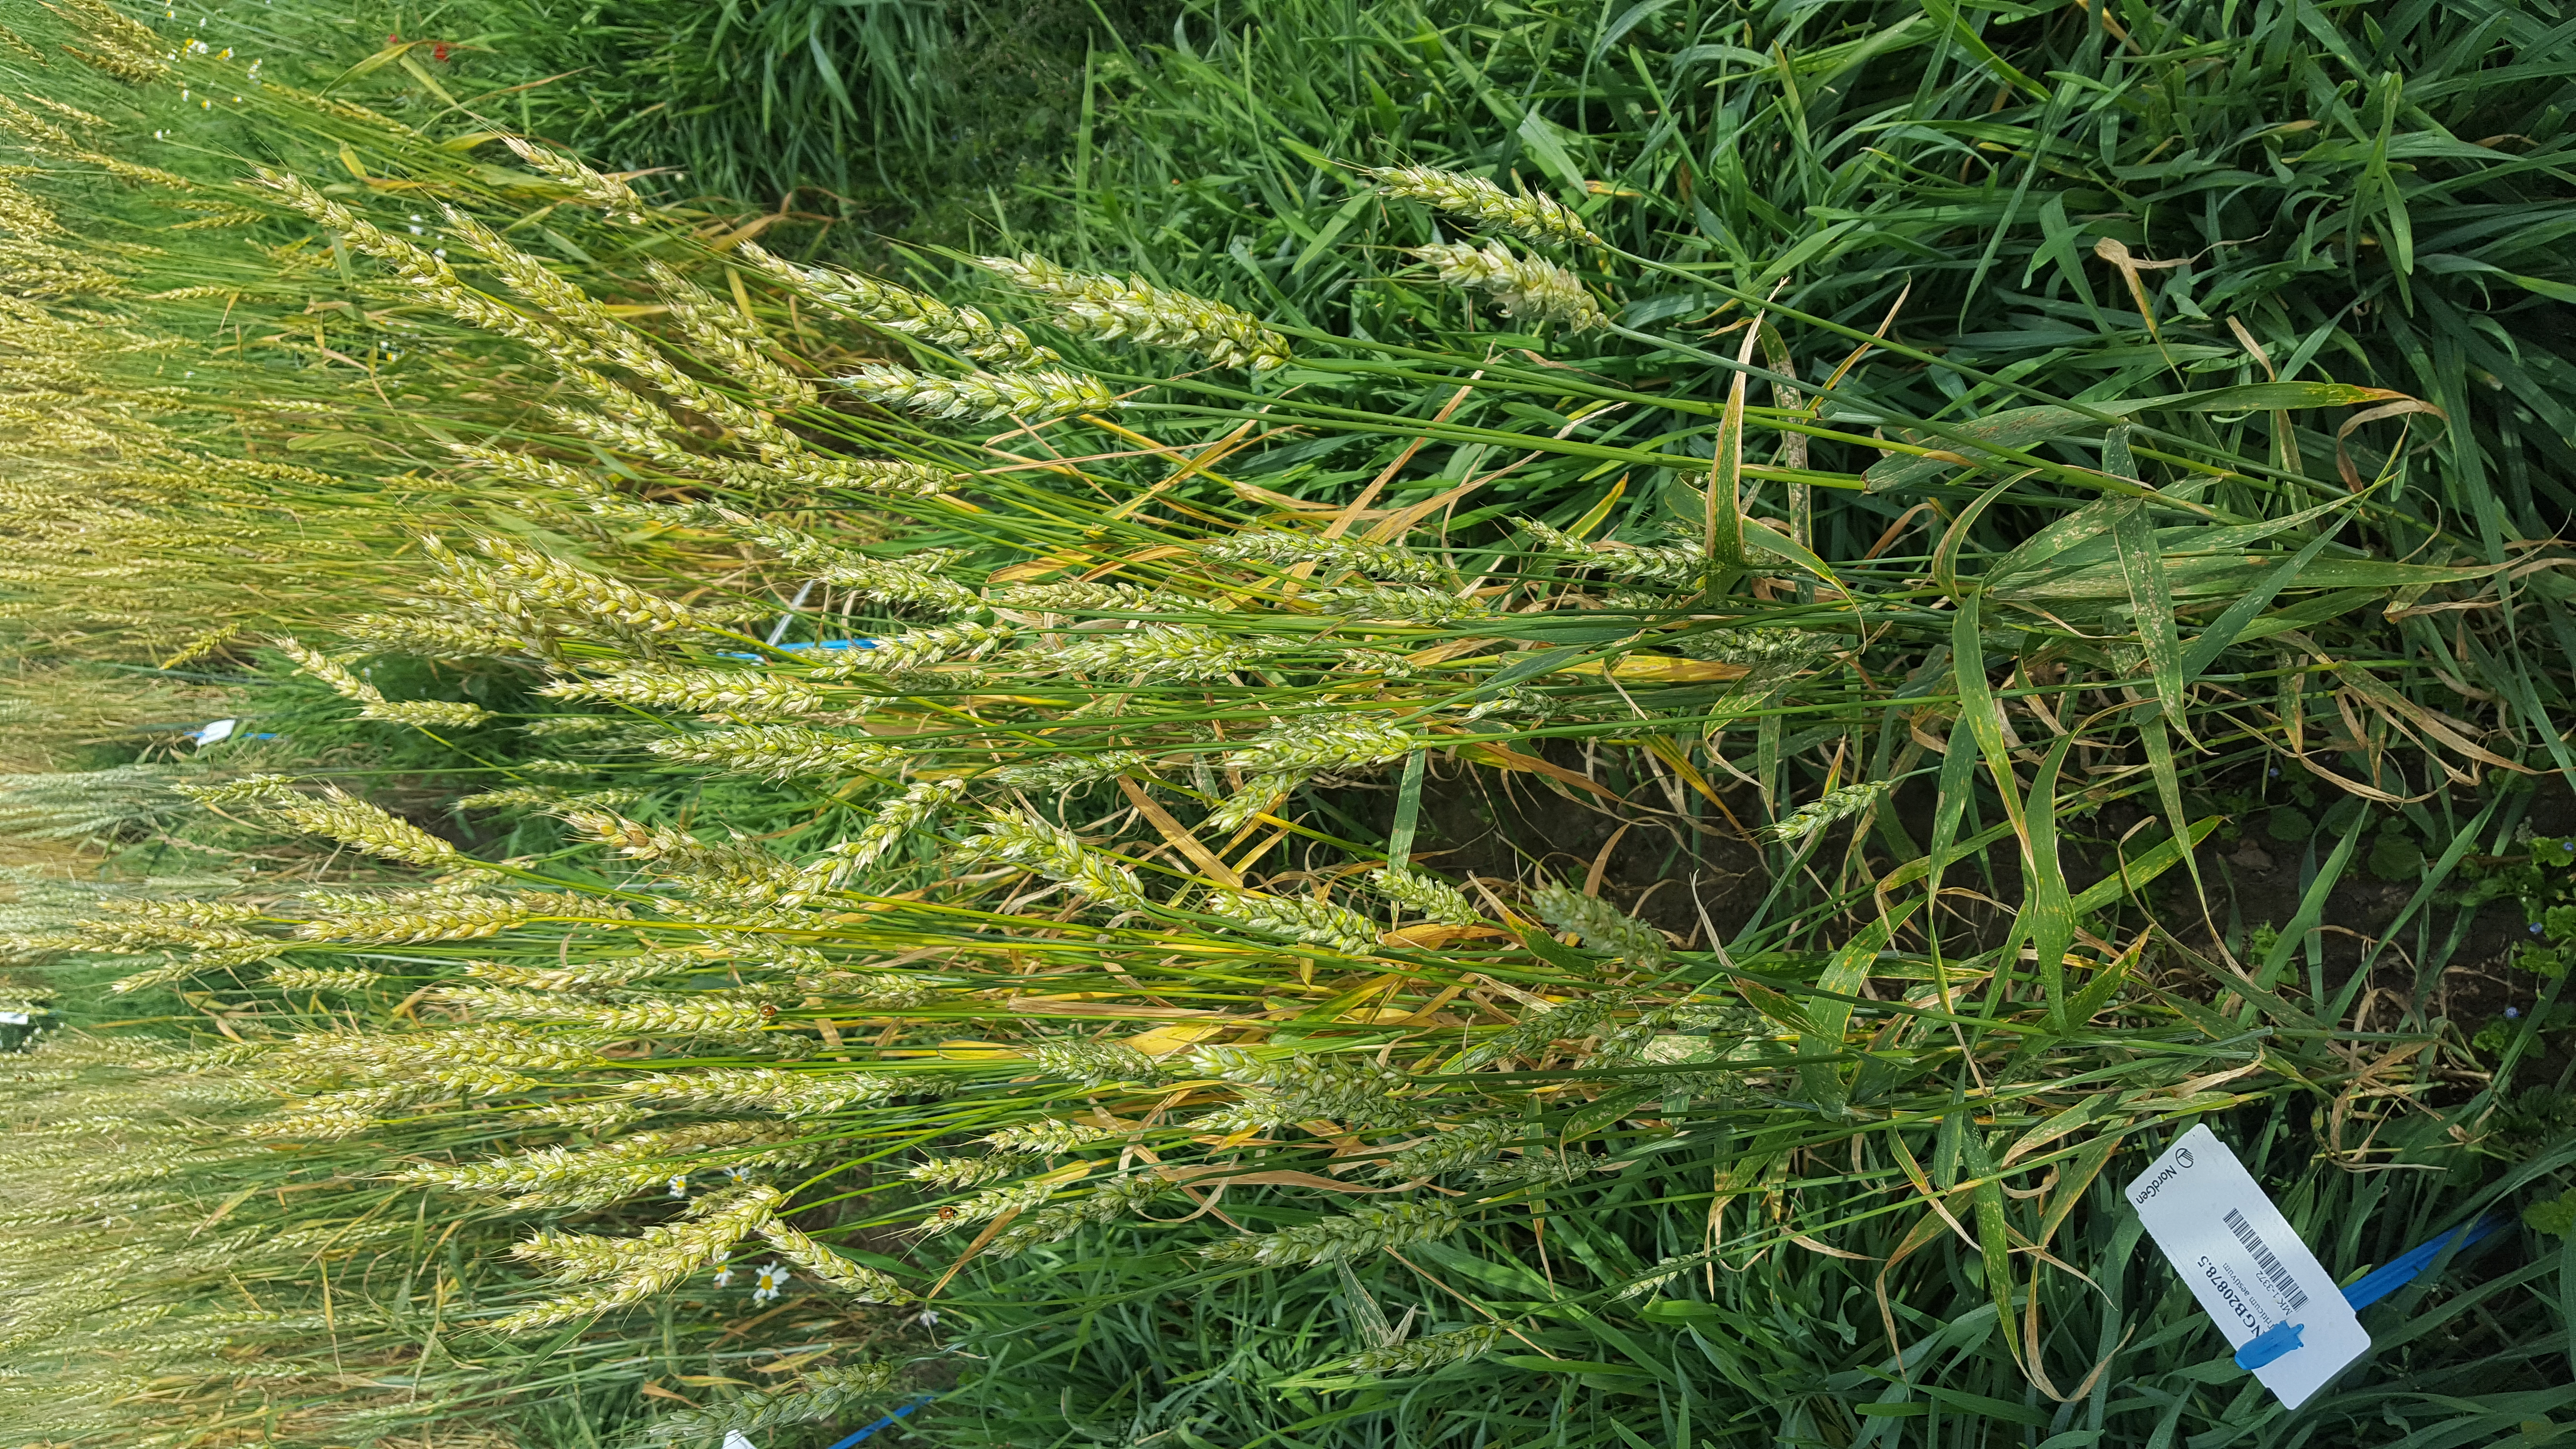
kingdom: Plantae
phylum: Tracheophyta
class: Liliopsida
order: Poales
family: Poaceae
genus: Triticum
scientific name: Triticum aestivum
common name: Common wheat
